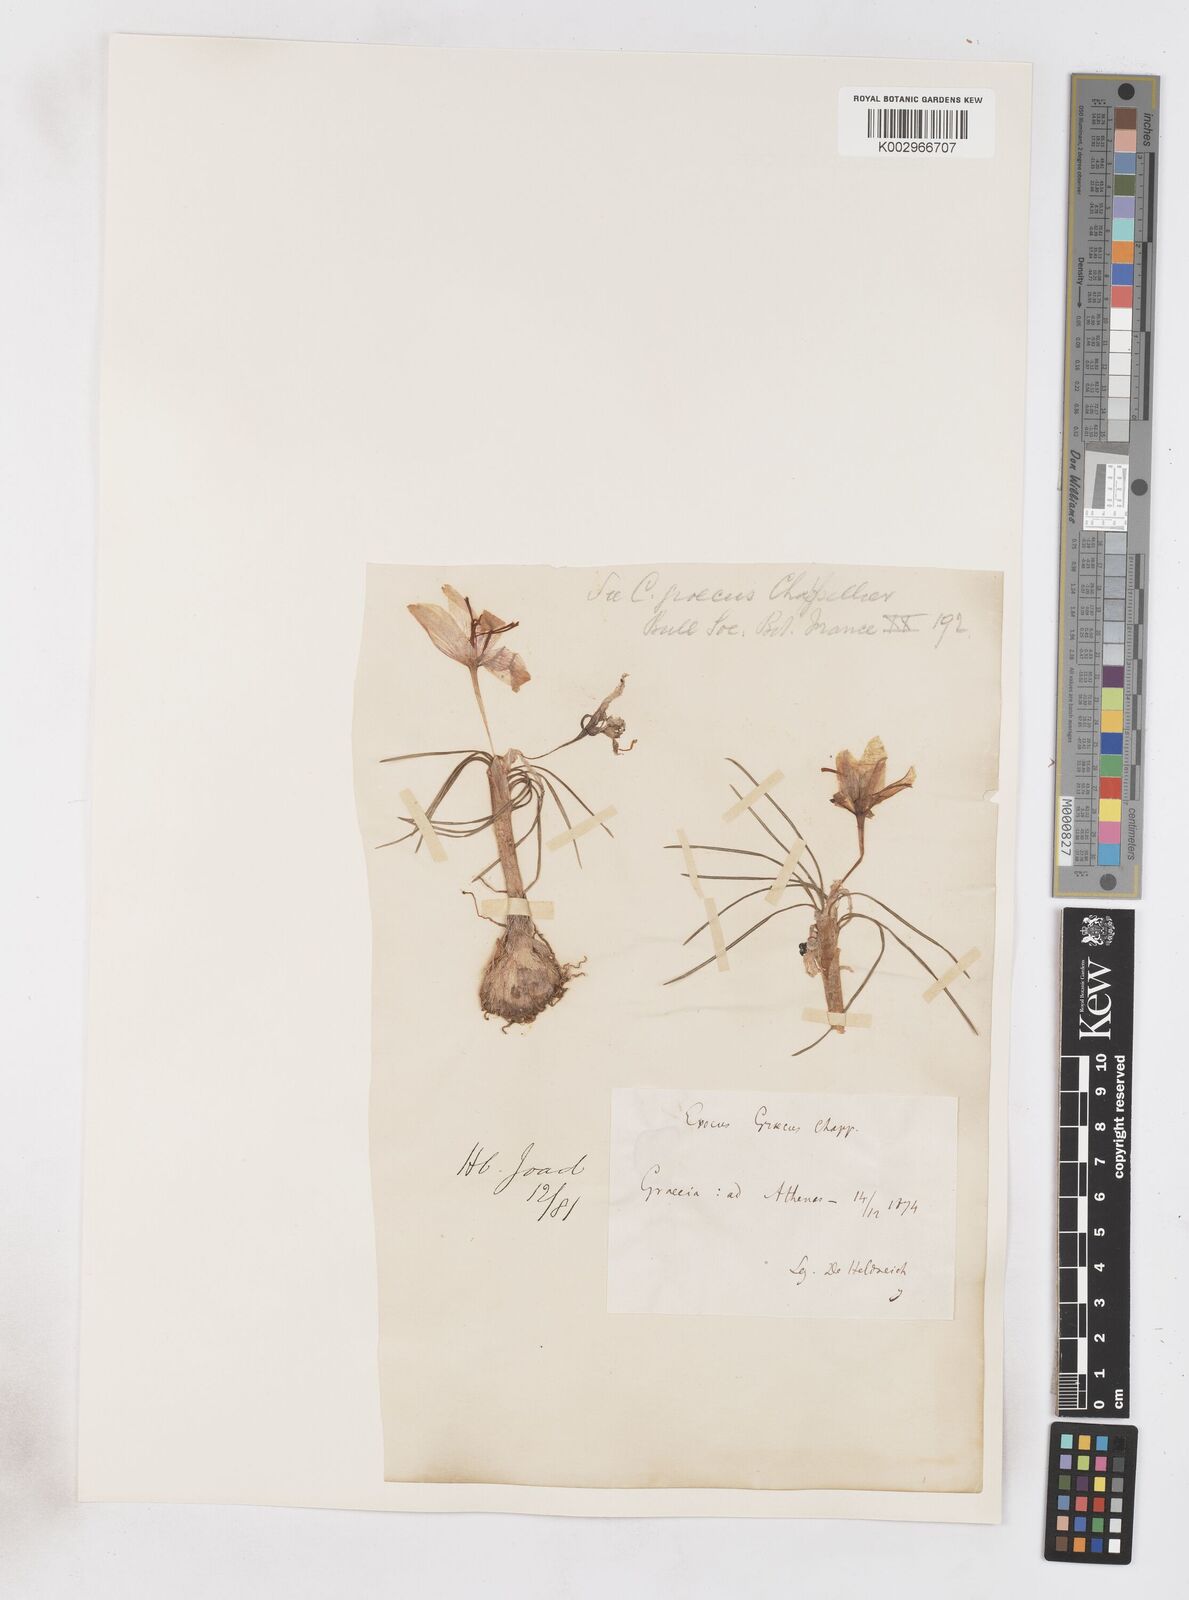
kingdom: Plantae
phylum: Tracheophyta
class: Liliopsida
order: Asparagales
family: Iridaceae
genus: Crocus
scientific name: Crocus cartwrightianus
